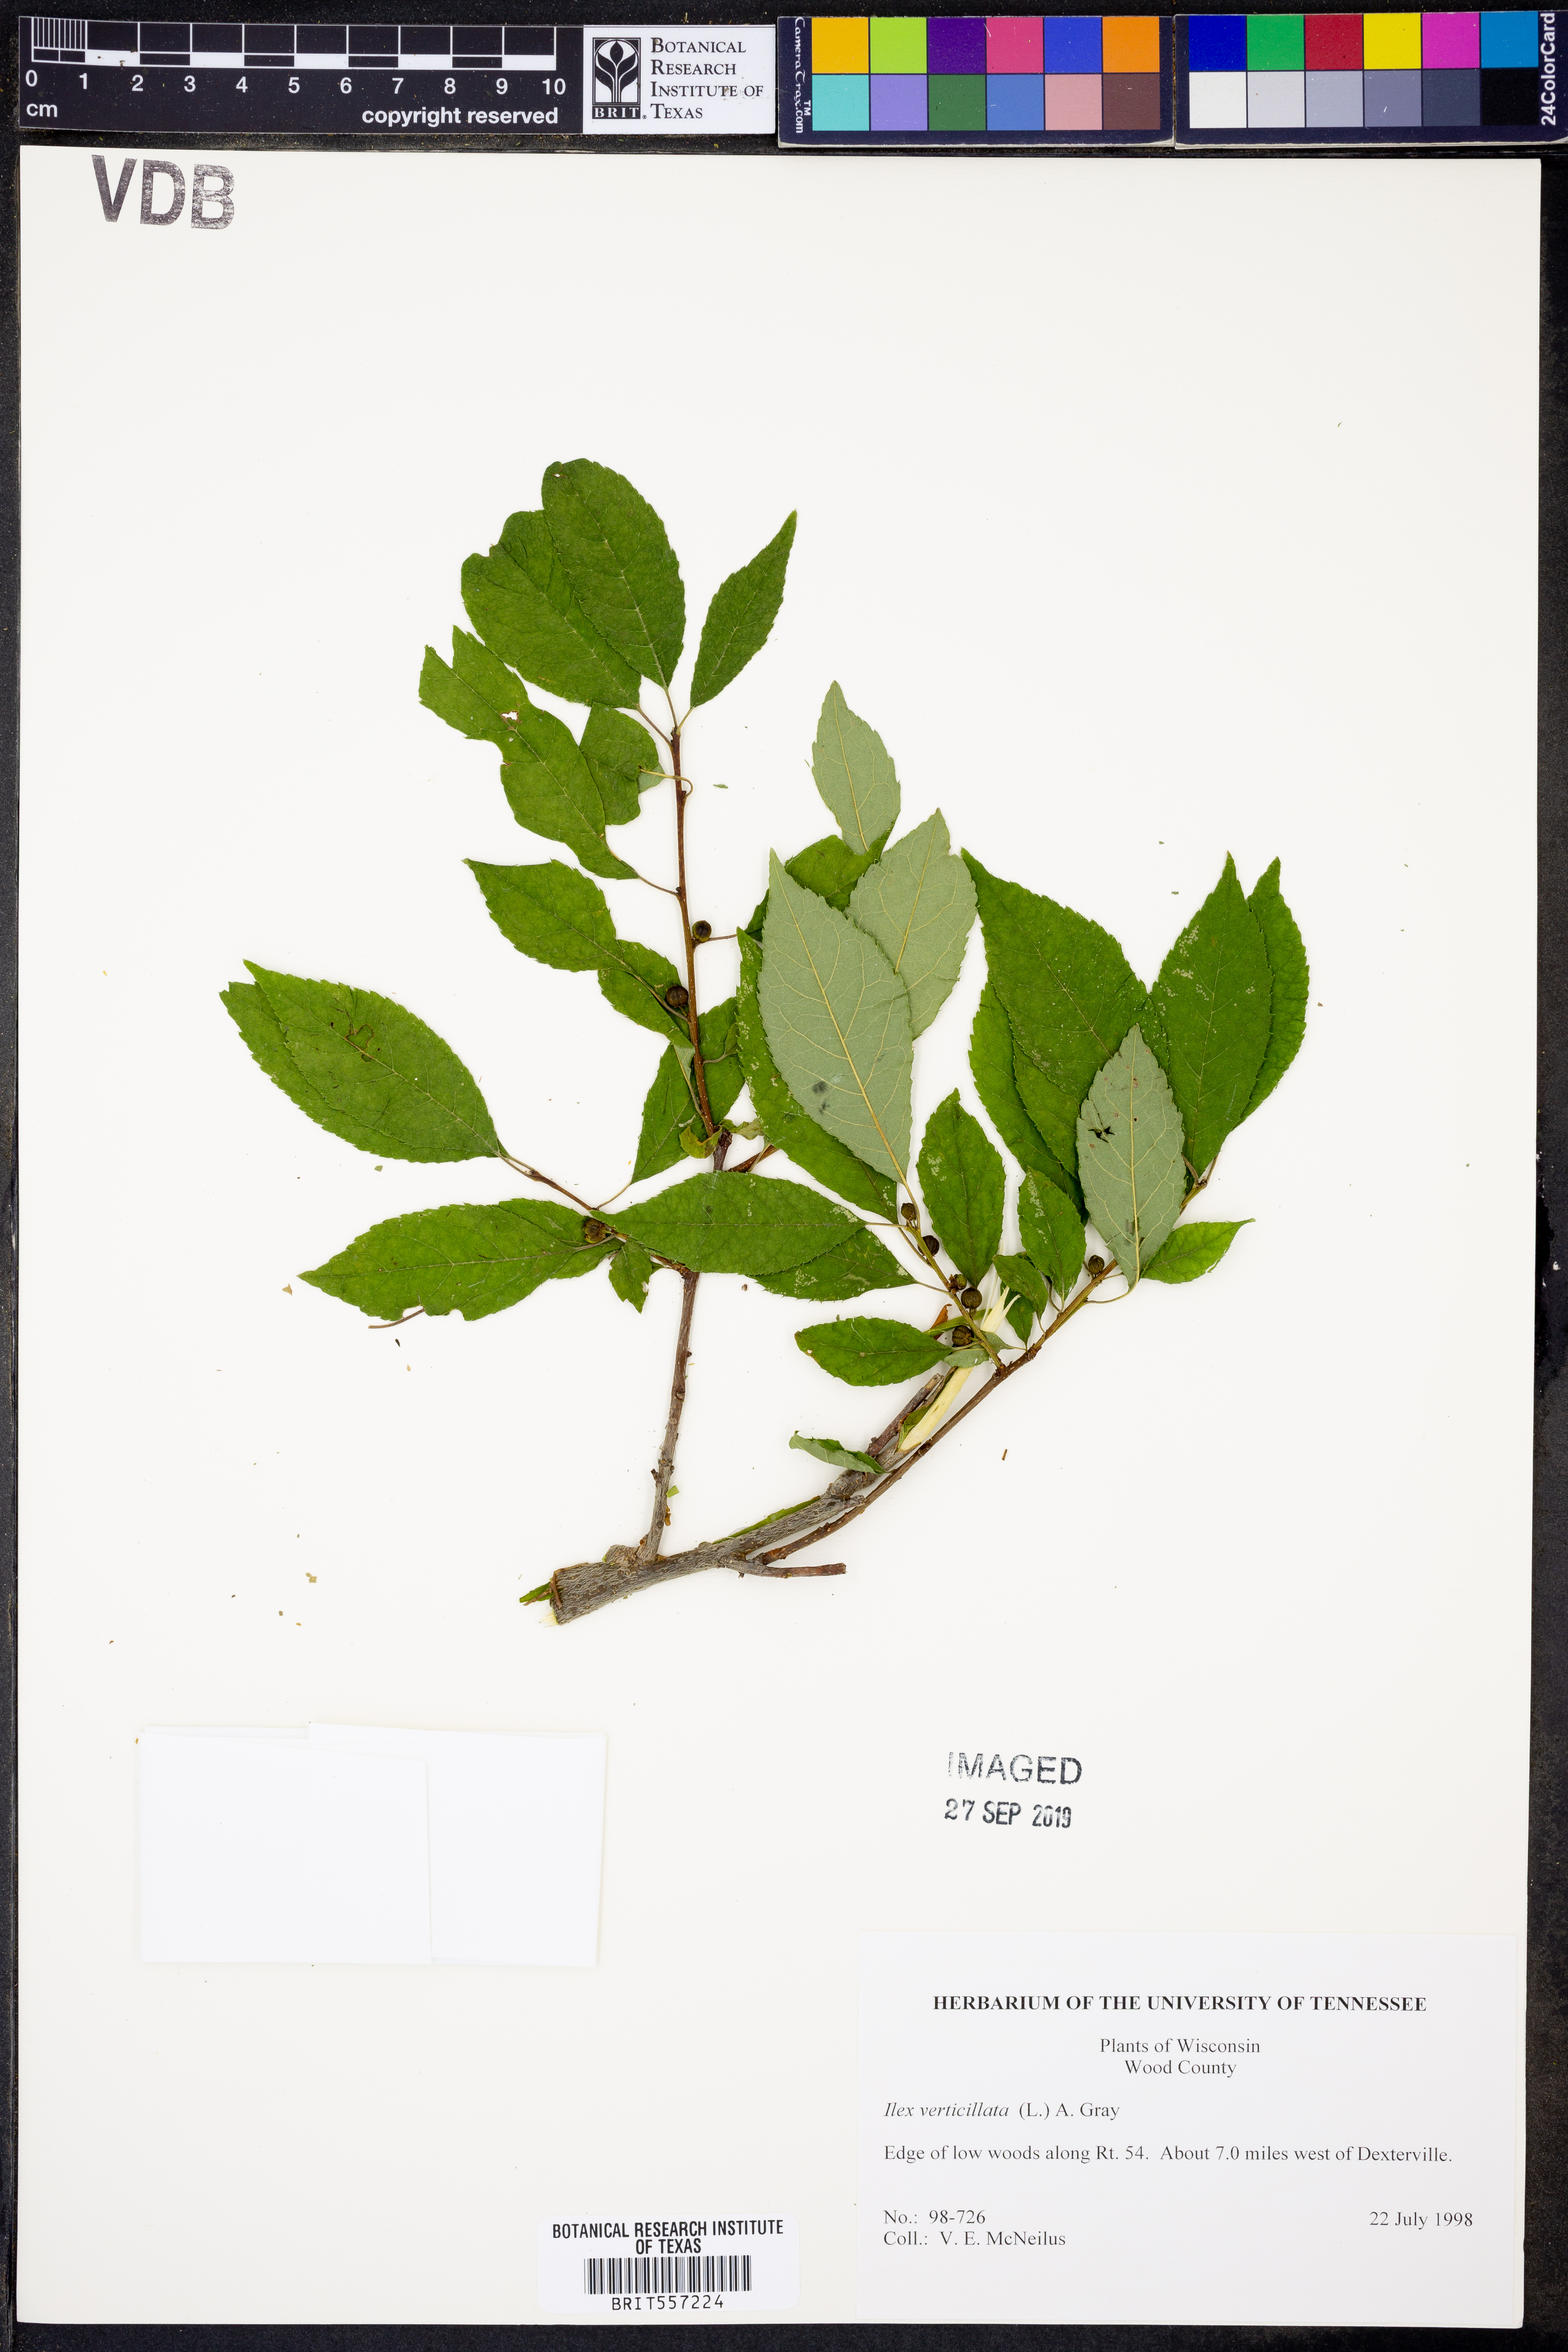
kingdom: Plantae
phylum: Tracheophyta
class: Magnoliopsida
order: Aquifoliales
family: Aquifoliaceae
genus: Ilex
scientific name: Ilex verticillata
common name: Virginia winterberry
